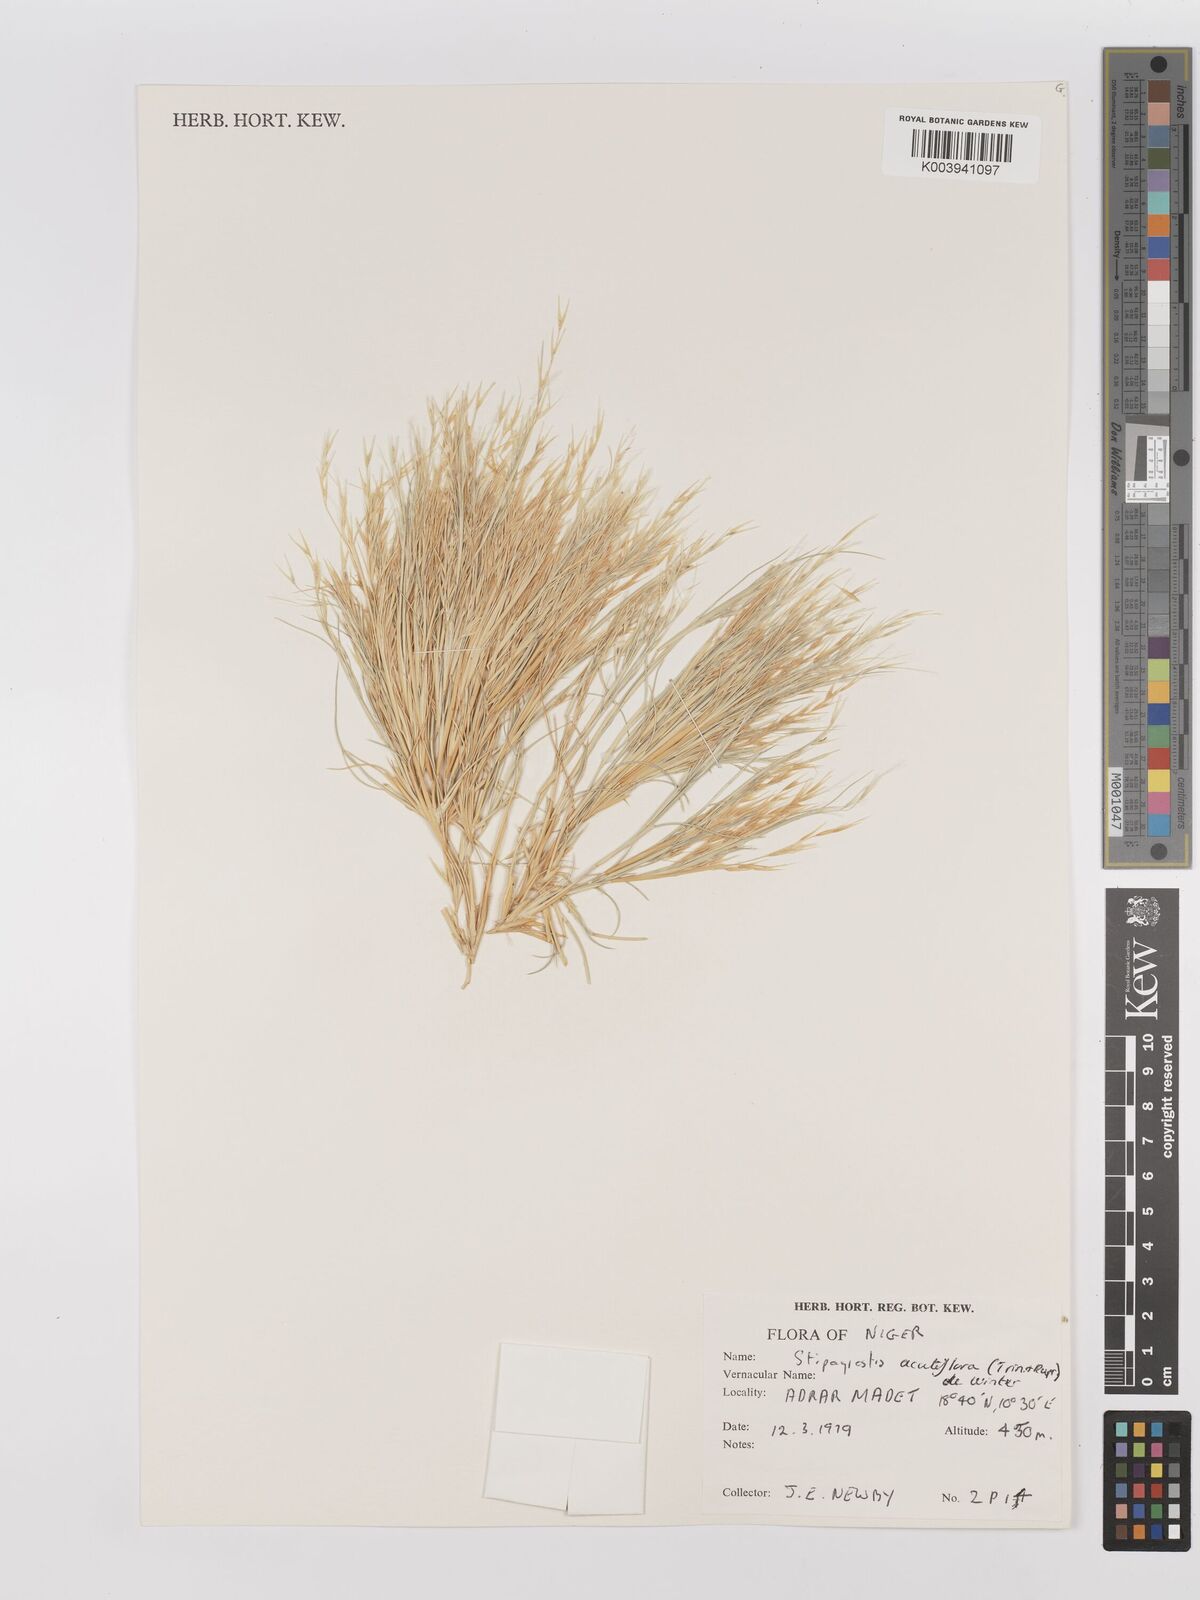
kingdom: Plantae
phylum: Tracheophyta
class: Liliopsida
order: Poales
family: Poaceae
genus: Stipagrostis
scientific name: Stipagrostis acutiflora
